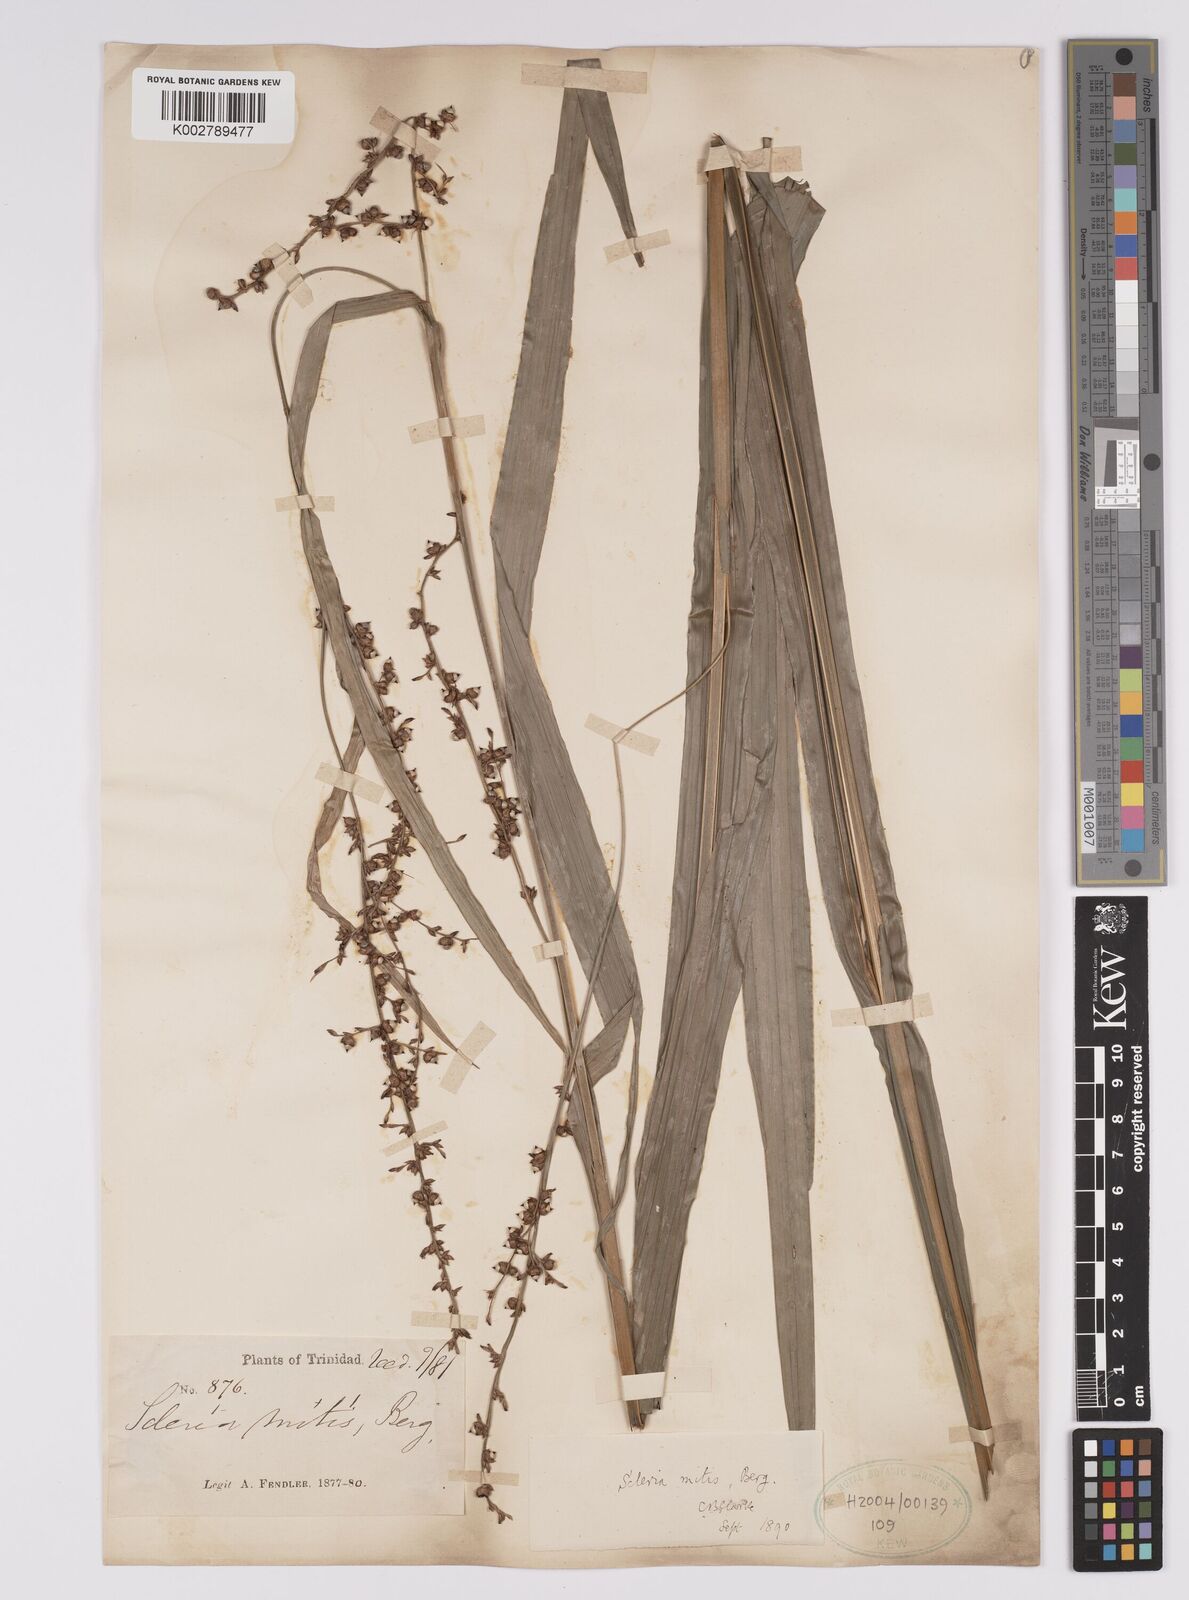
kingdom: Plantae
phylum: Tracheophyta
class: Liliopsida
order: Poales
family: Cyperaceae
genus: Scleria
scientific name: Scleria mitis
